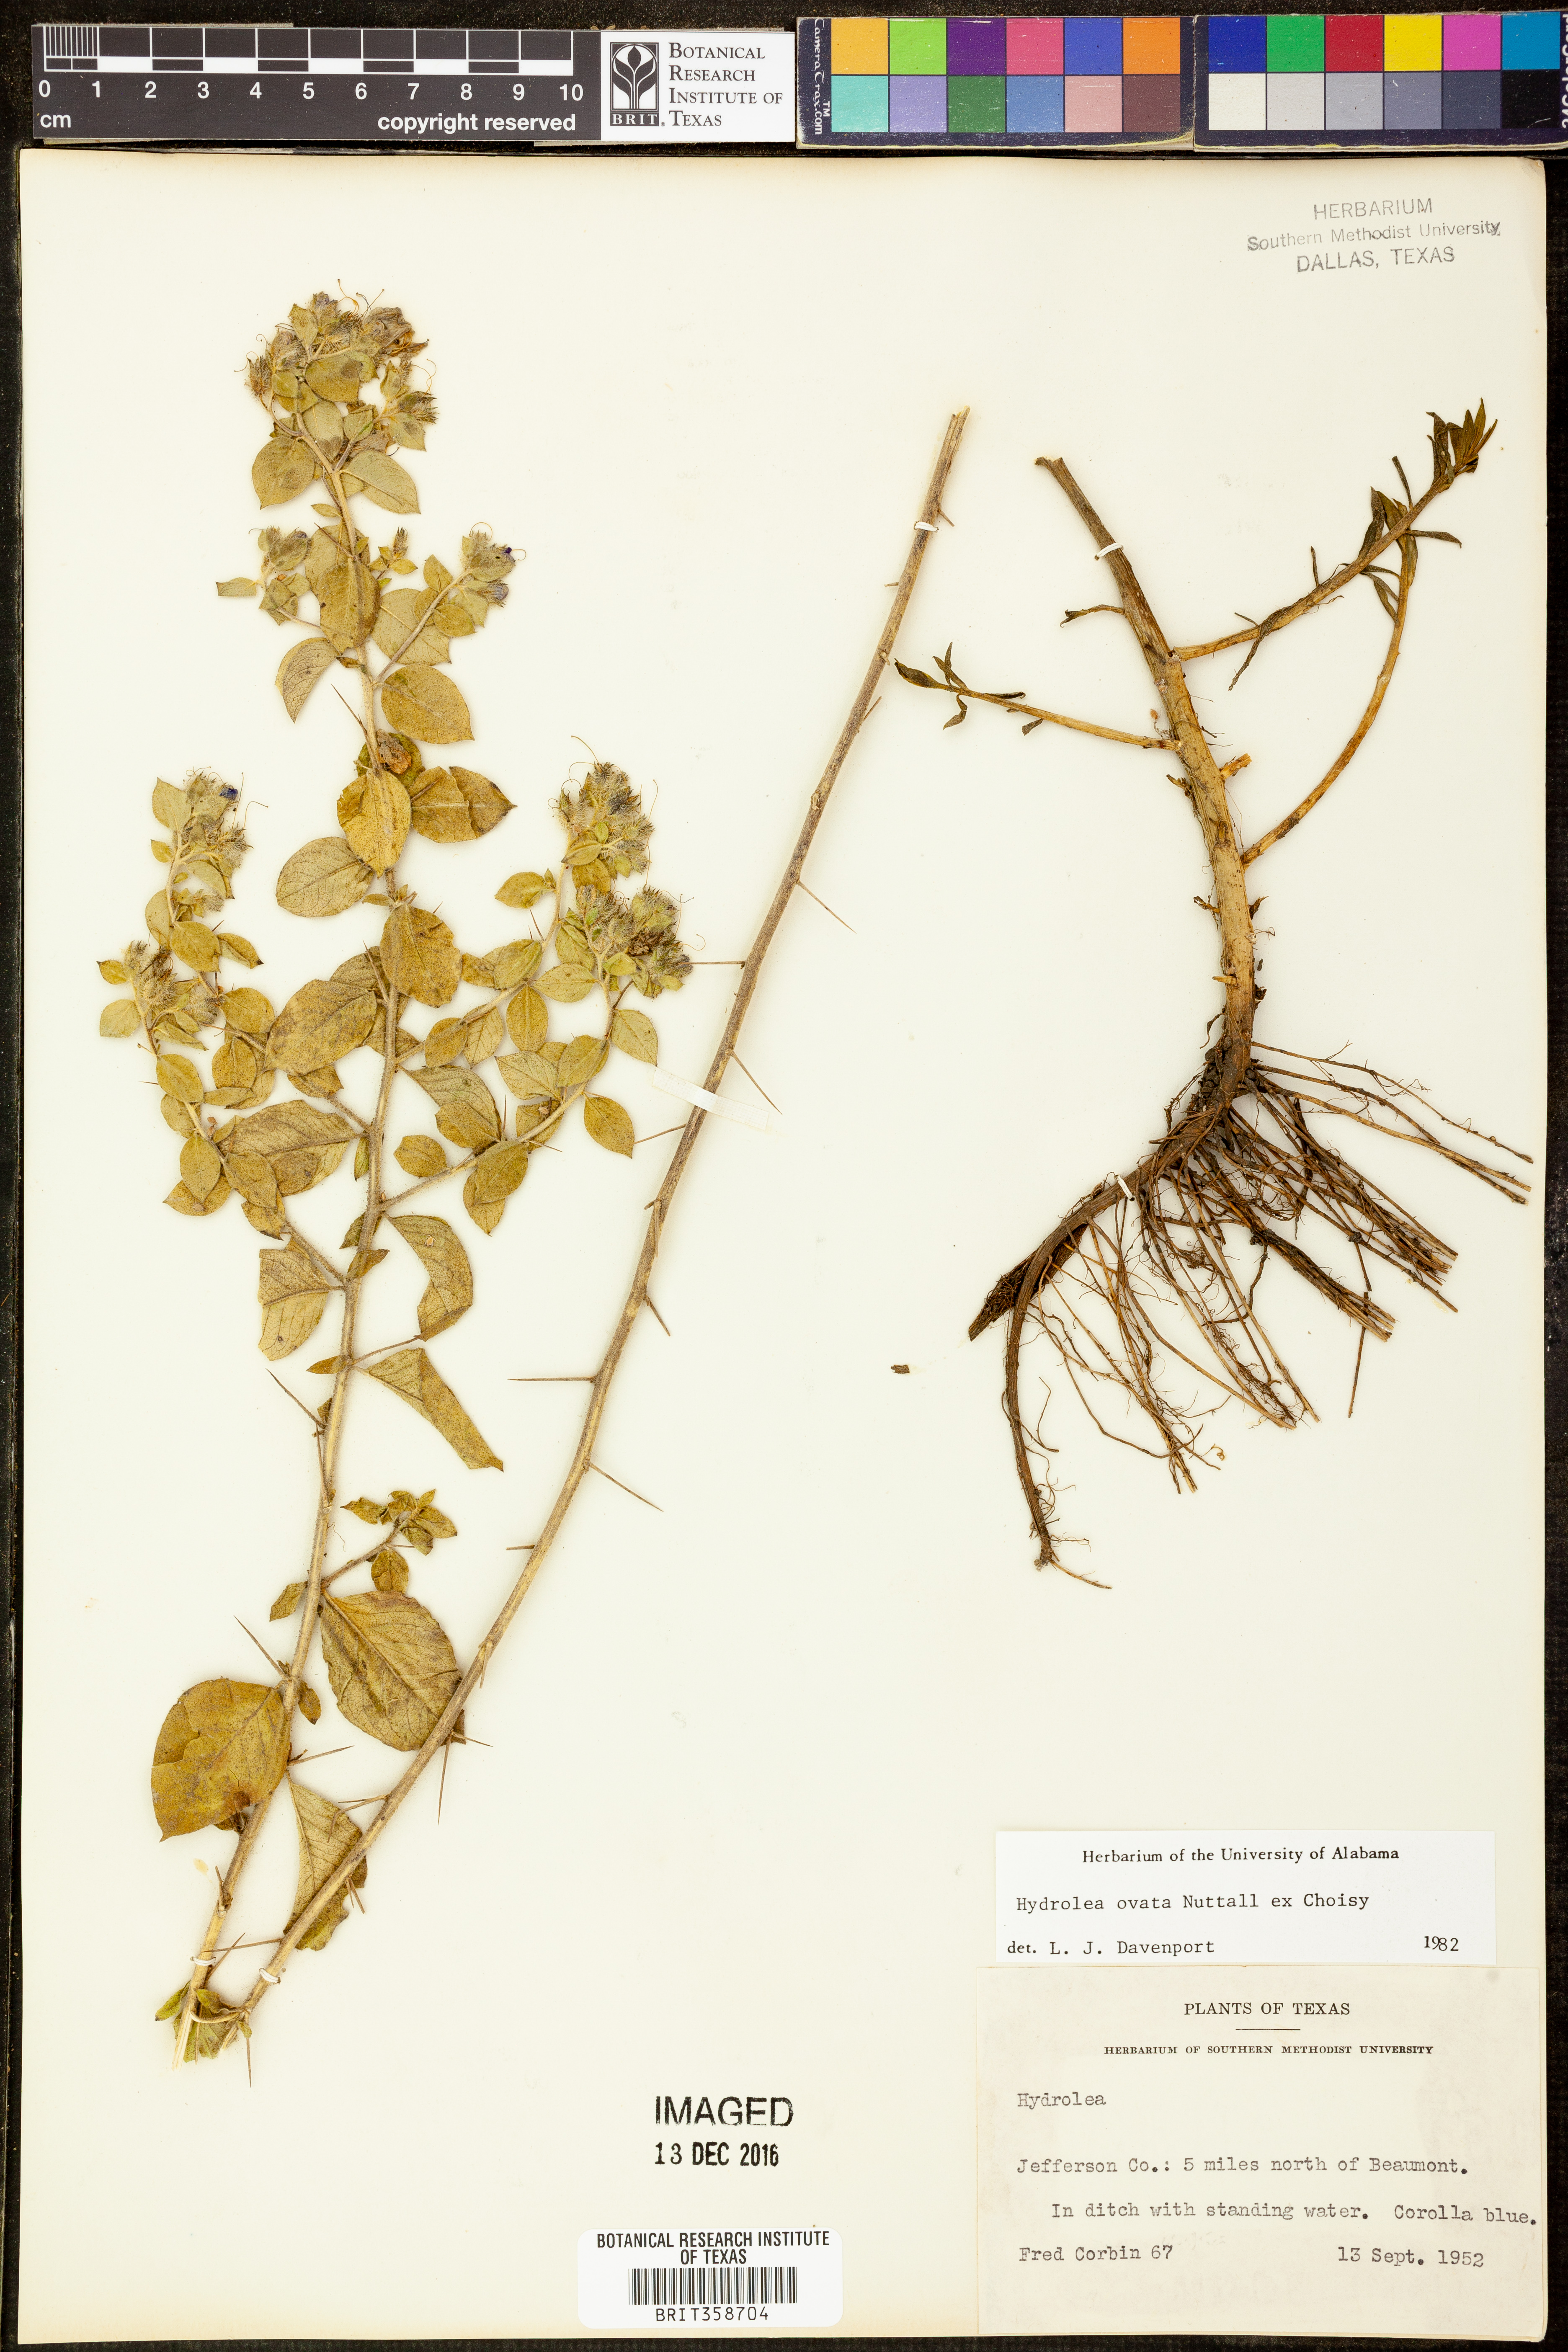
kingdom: Plantae
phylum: Tracheophyta
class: Magnoliopsida
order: Solanales
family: Hydroleaceae
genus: Hydrolea
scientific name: Hydrolea ovata
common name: Ovate false fiddleleaf
